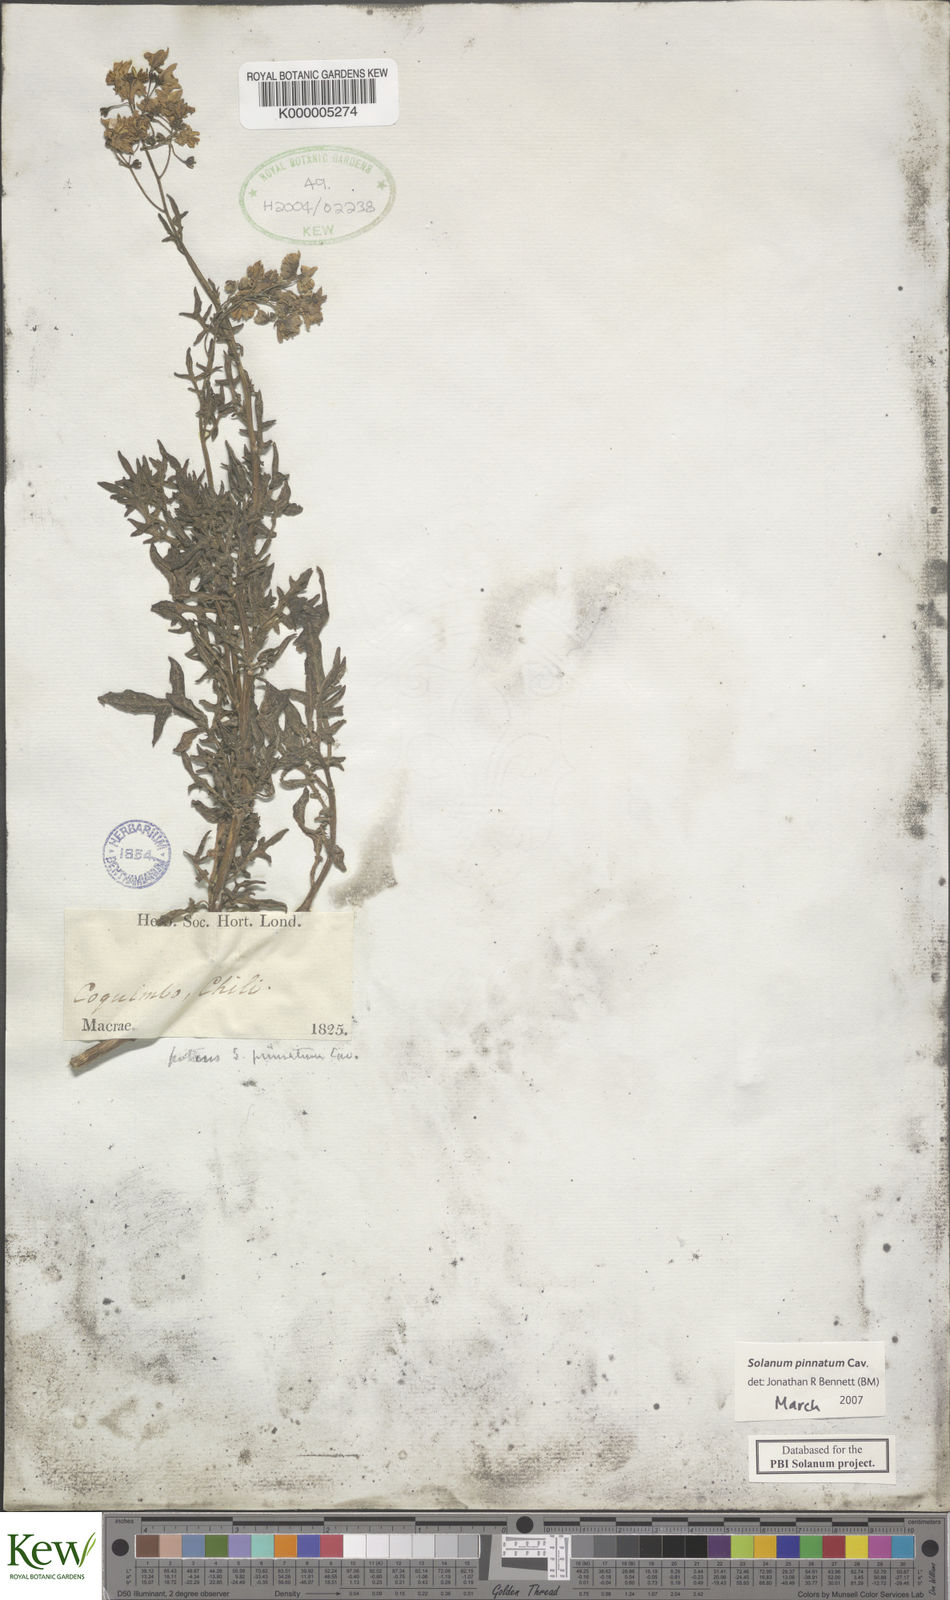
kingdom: Plantae
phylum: Tracheophyta
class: Magnoliopsida
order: Solanales
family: Solanaceae
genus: Solanum
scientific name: Solanum pinnatum
